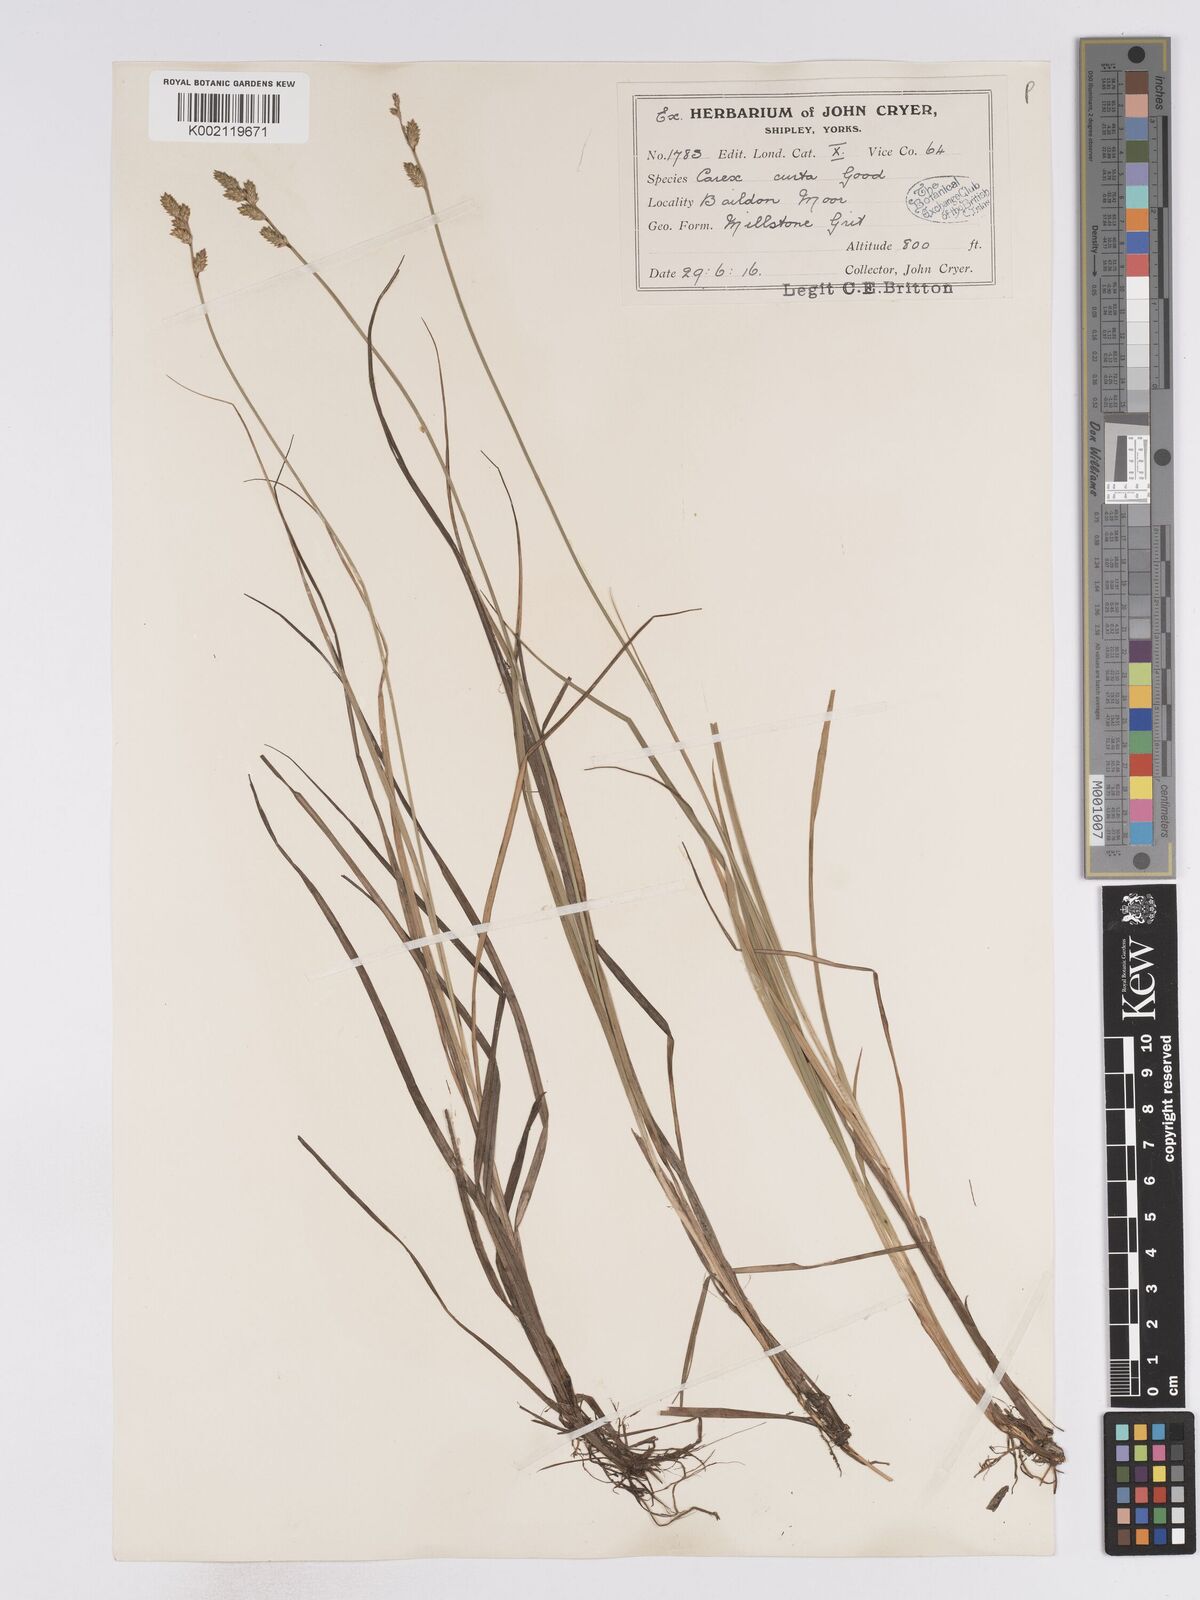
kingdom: Plantae
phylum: Tracheophyta
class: Liliopsida
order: Poales
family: Cyperaceae
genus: Carex
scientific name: Carex curta
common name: White sedge
